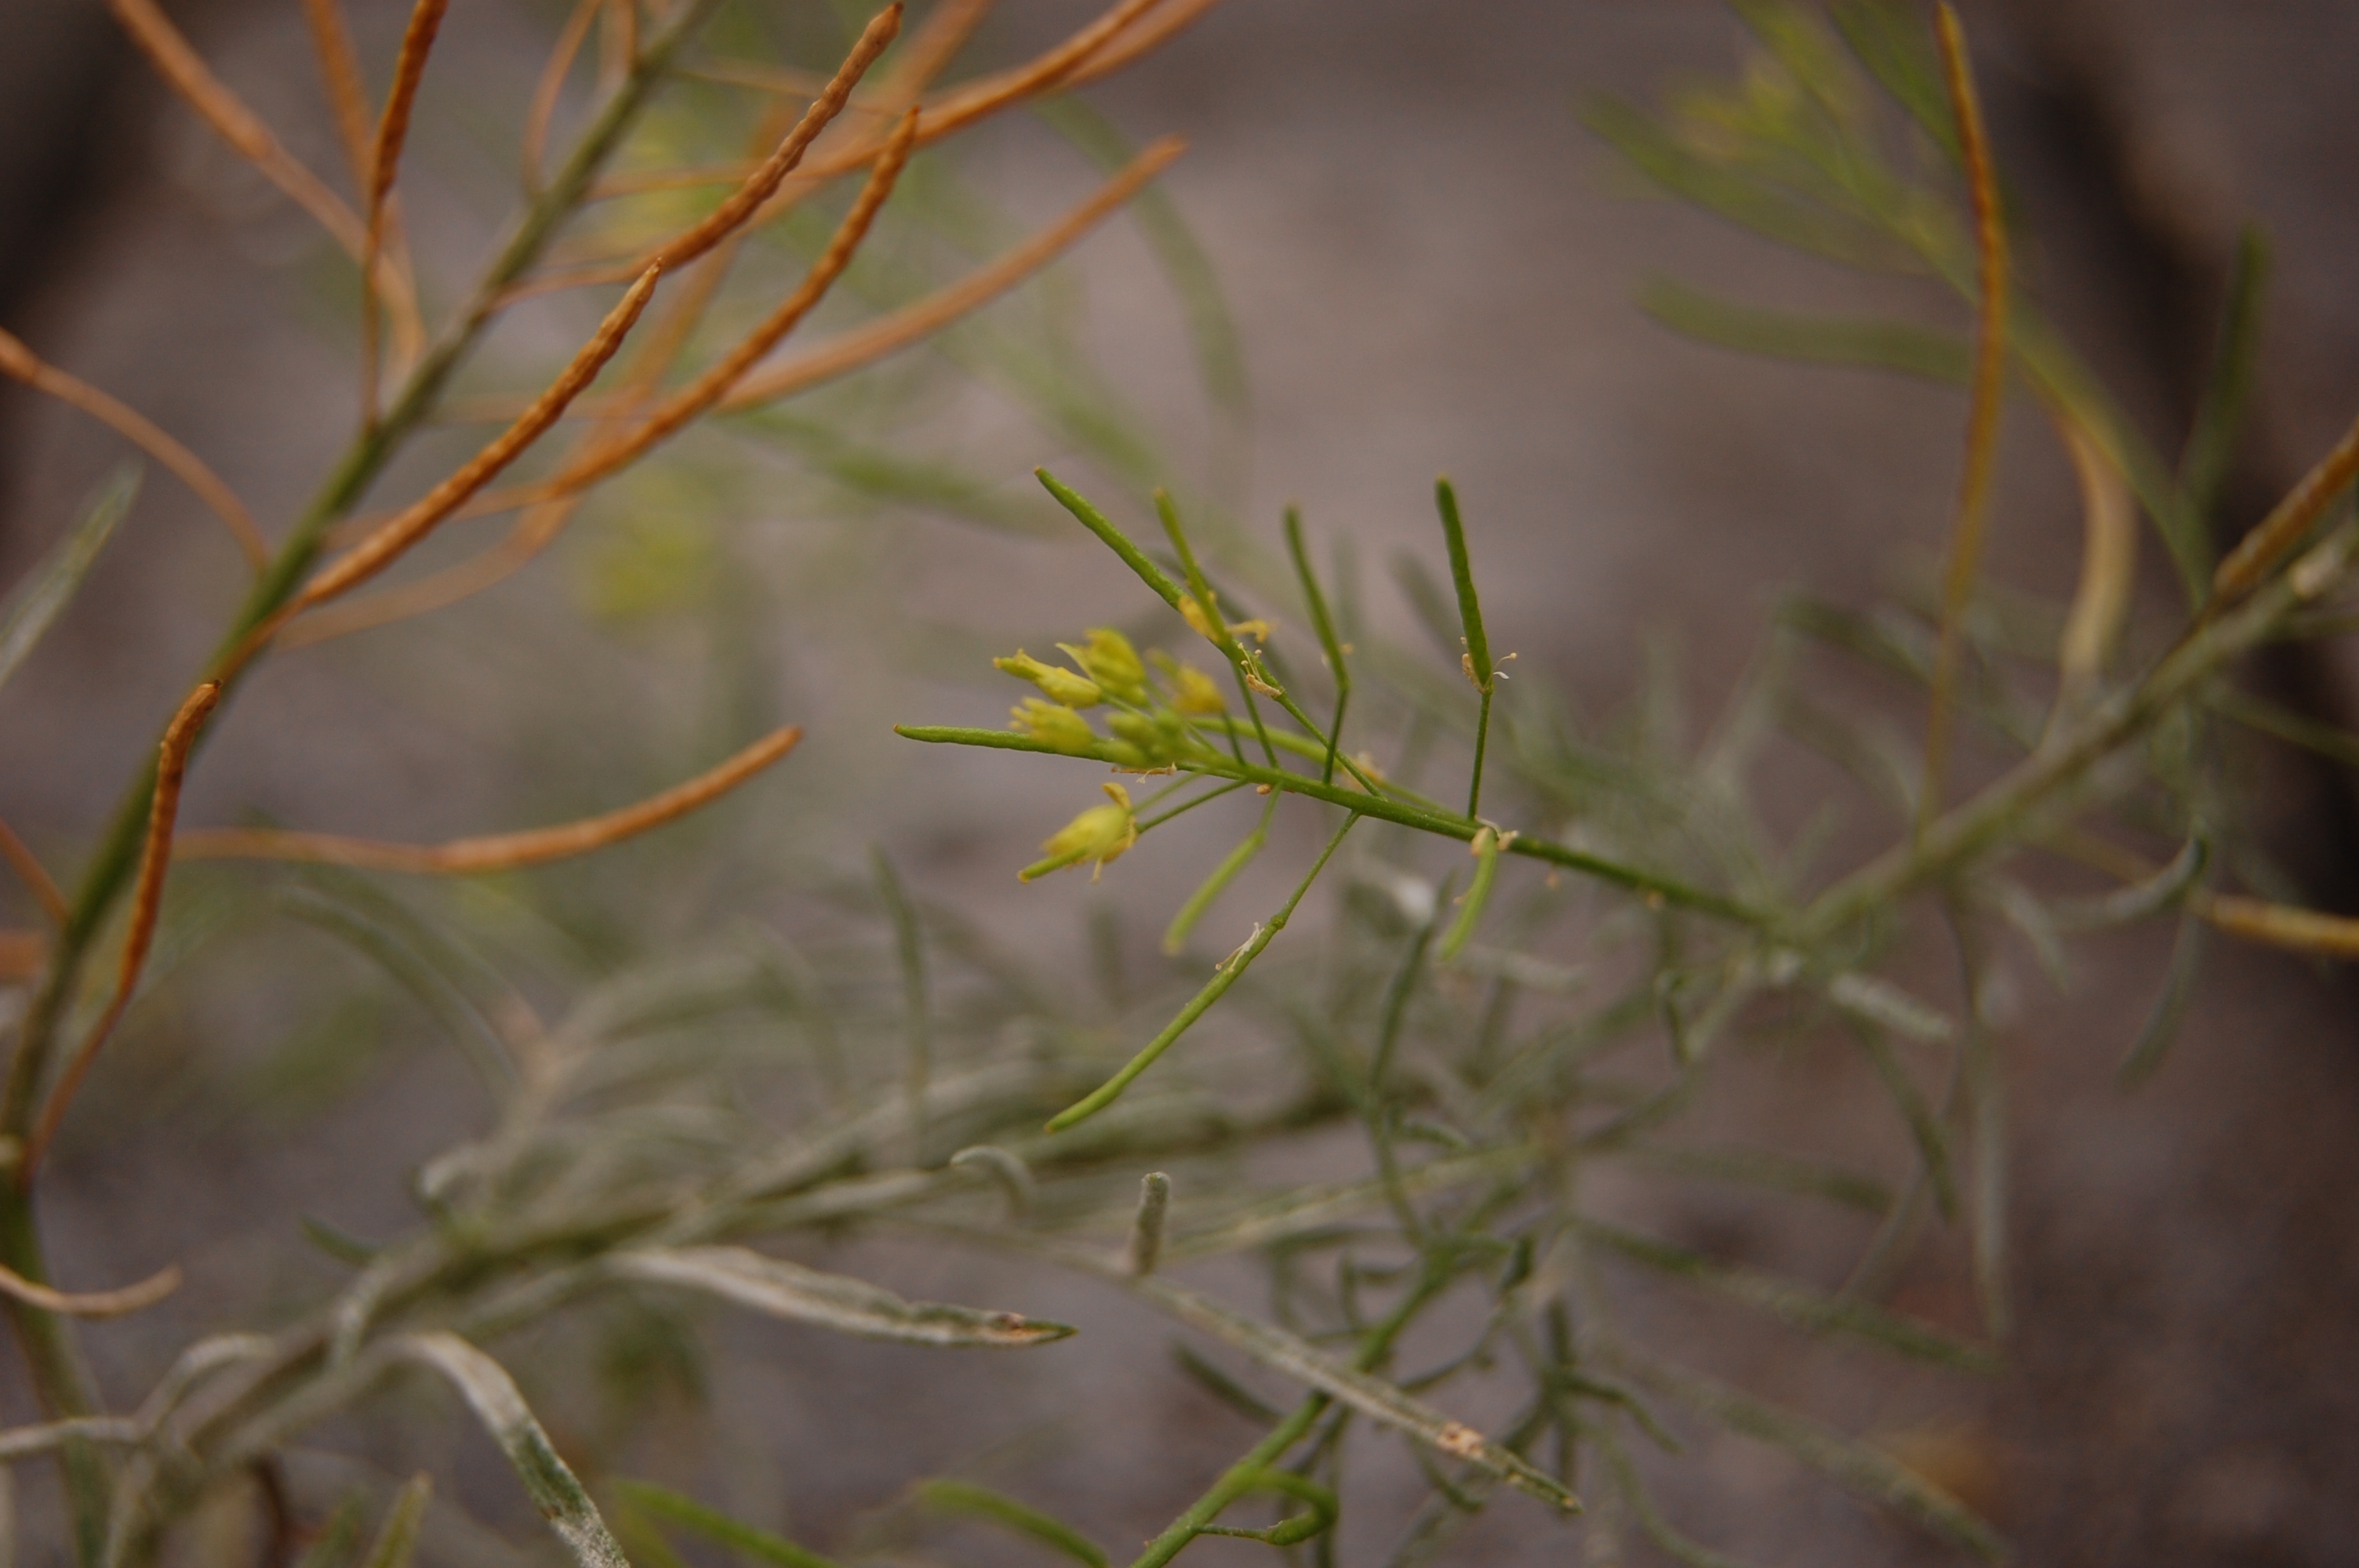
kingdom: Plantae
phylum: Tracheophyta
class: Magnoliopsida
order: Brassicales
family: Brassicaceae
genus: Descurainia
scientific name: Descurainia sophia
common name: Flixweed
